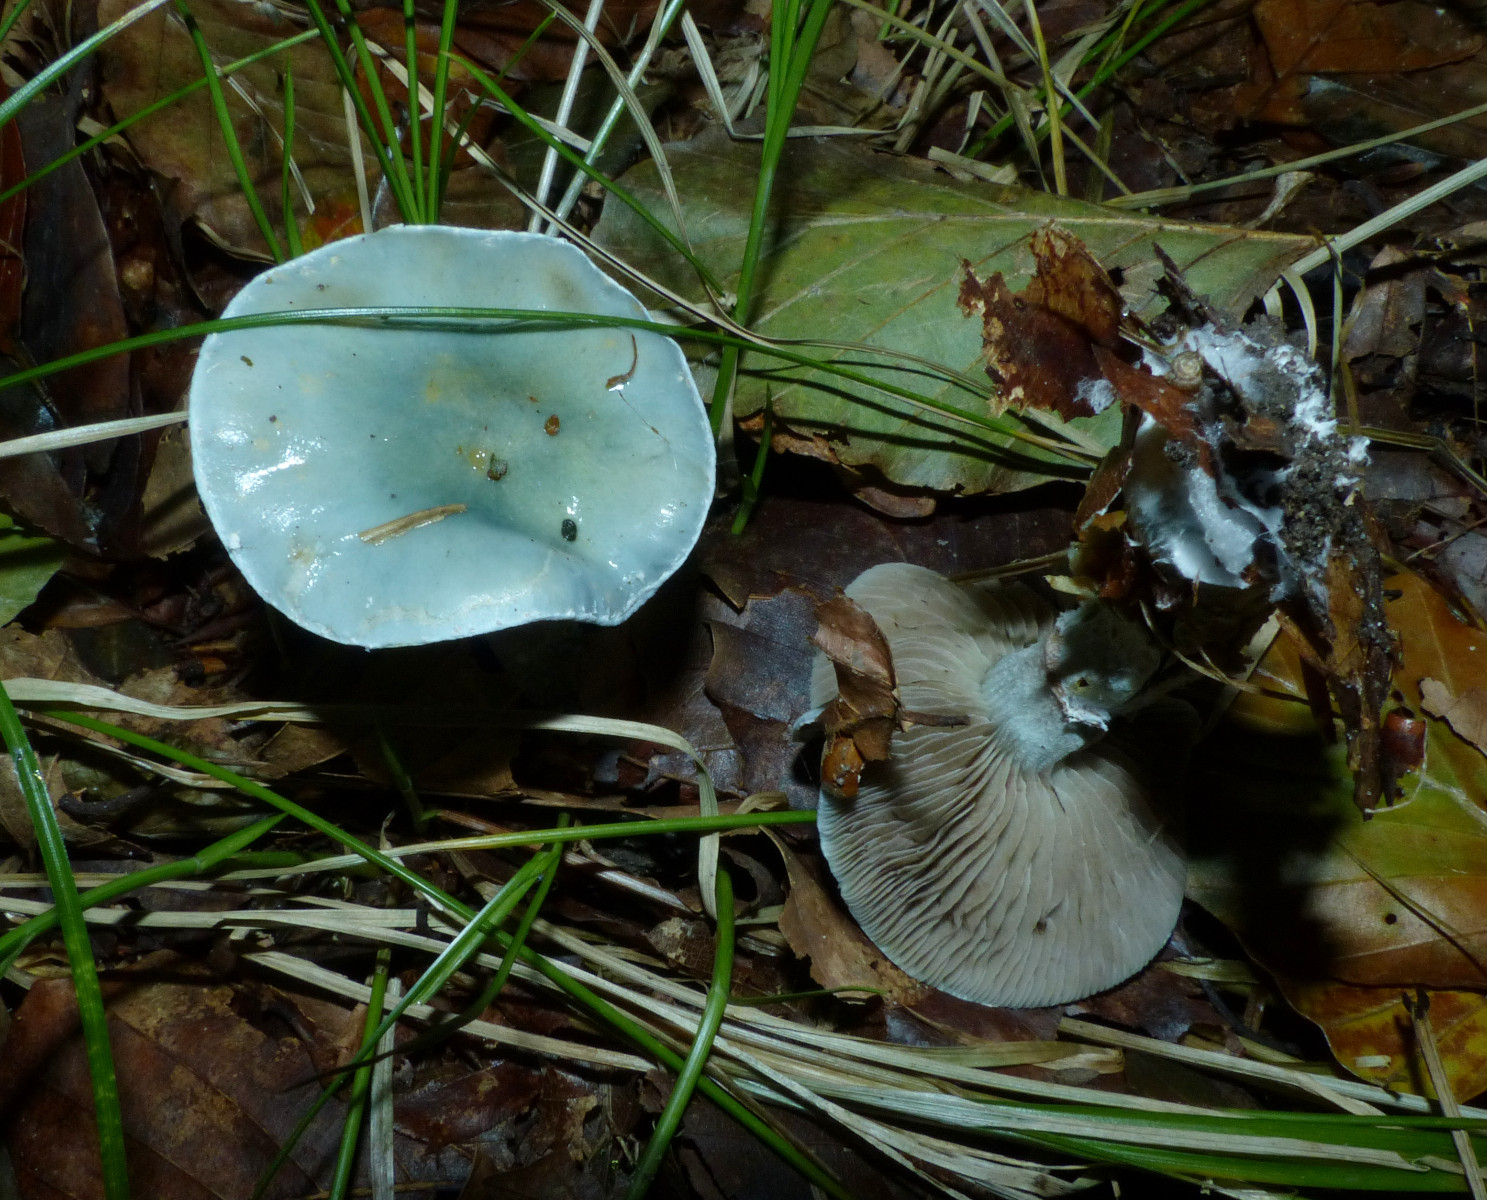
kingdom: Fungi
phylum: Basidiomycota
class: Agaricomycetes
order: Agaricales
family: Strophariaceae
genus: Stropharia
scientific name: Stropharia cyanea
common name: blågrøn bredblad
